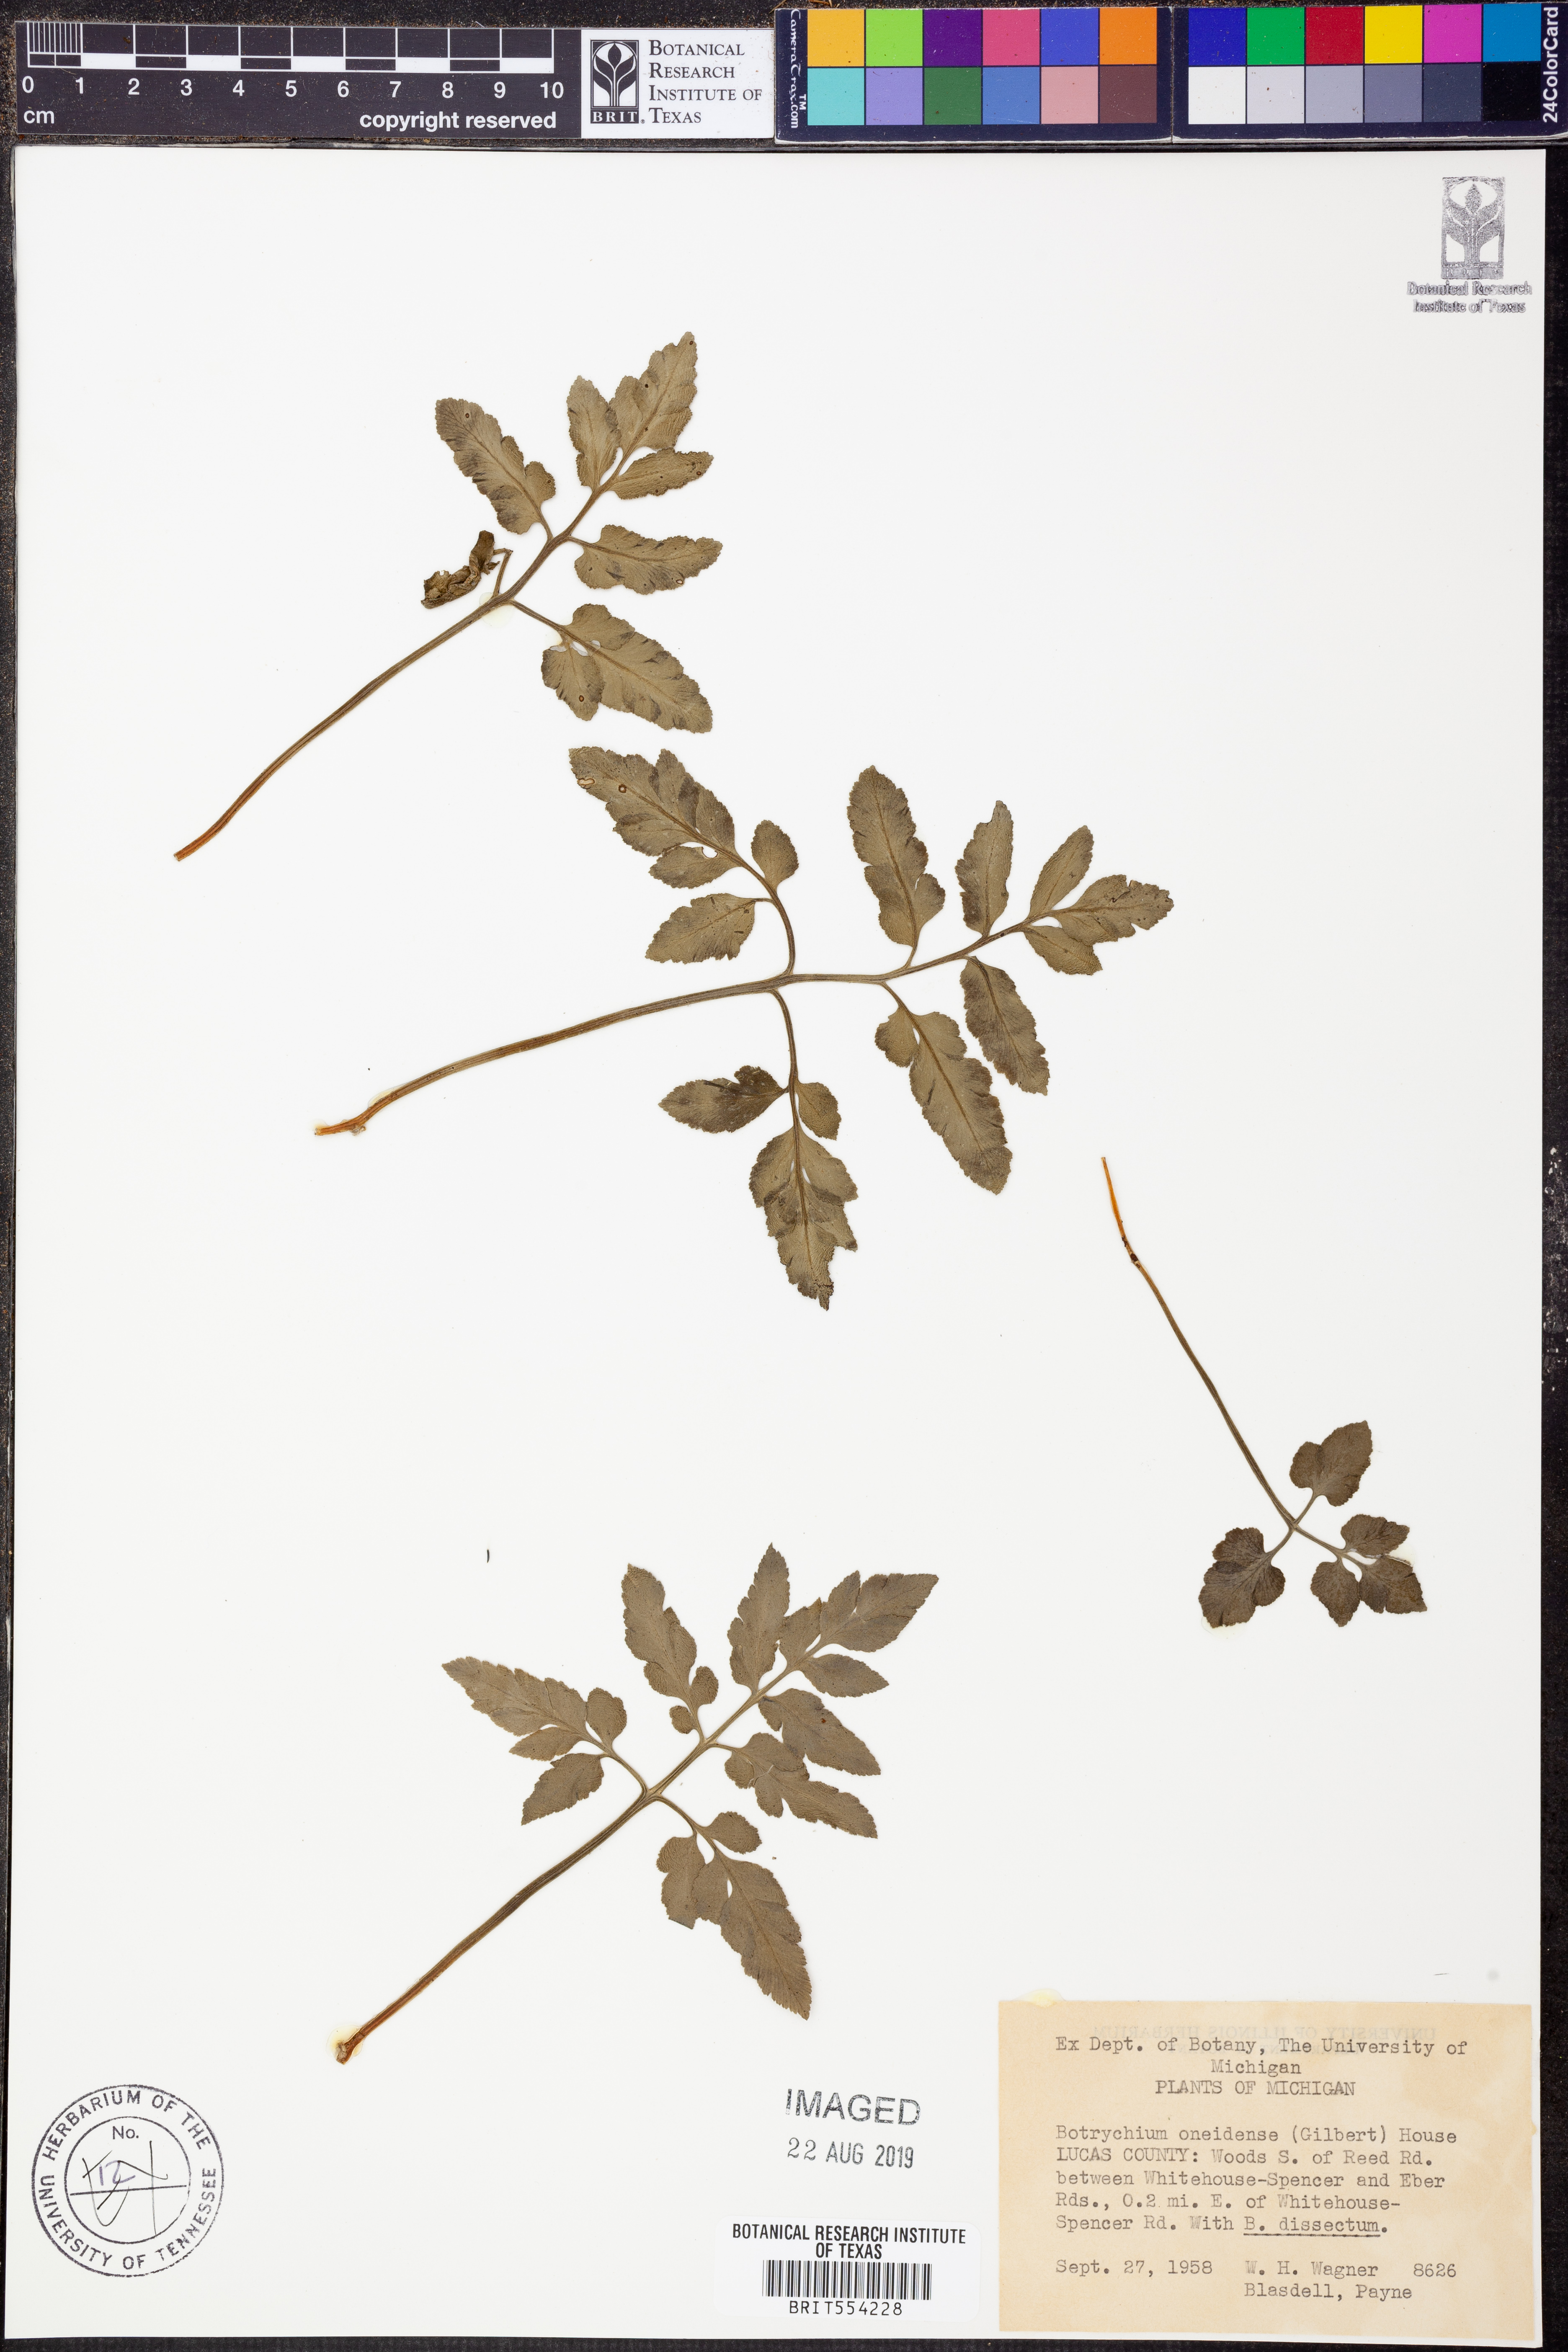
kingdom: Plantae
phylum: Tracheophyta
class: Polypodiopsida
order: Ophioglossales
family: Ophioglossaceae
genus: Sceptridium
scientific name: Sceptridium oneidense
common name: Blunt-lobed grapefern
